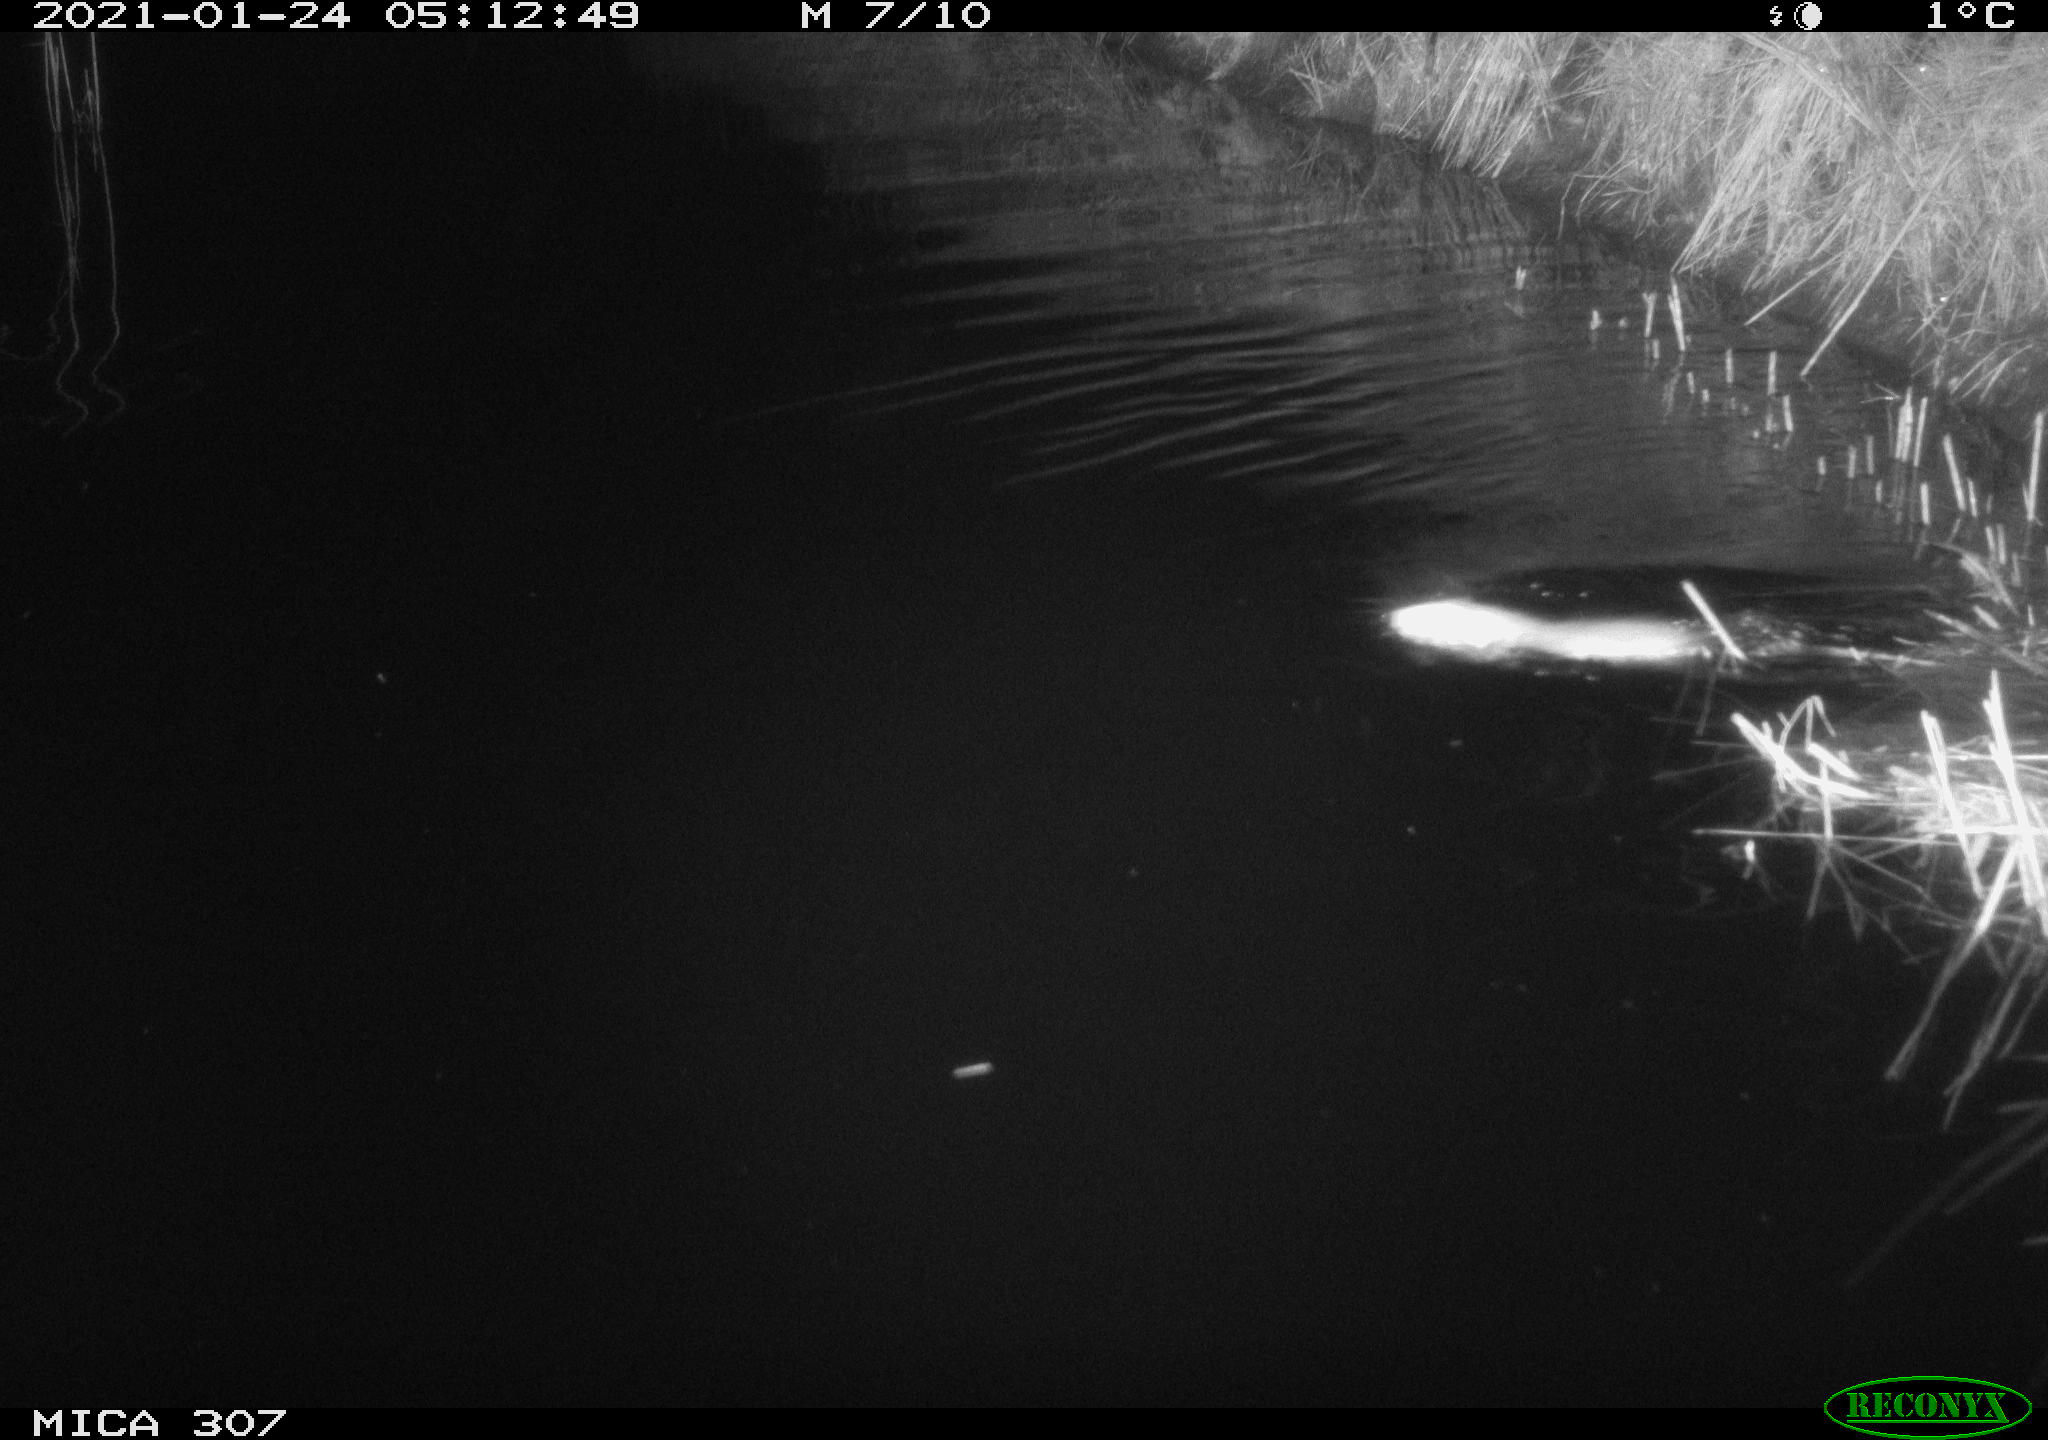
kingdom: Animalia
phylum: Chordata
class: Mammalia
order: Rodentia
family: Muridae
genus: Rattus
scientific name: Rattus norvegicus
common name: Brown rat
